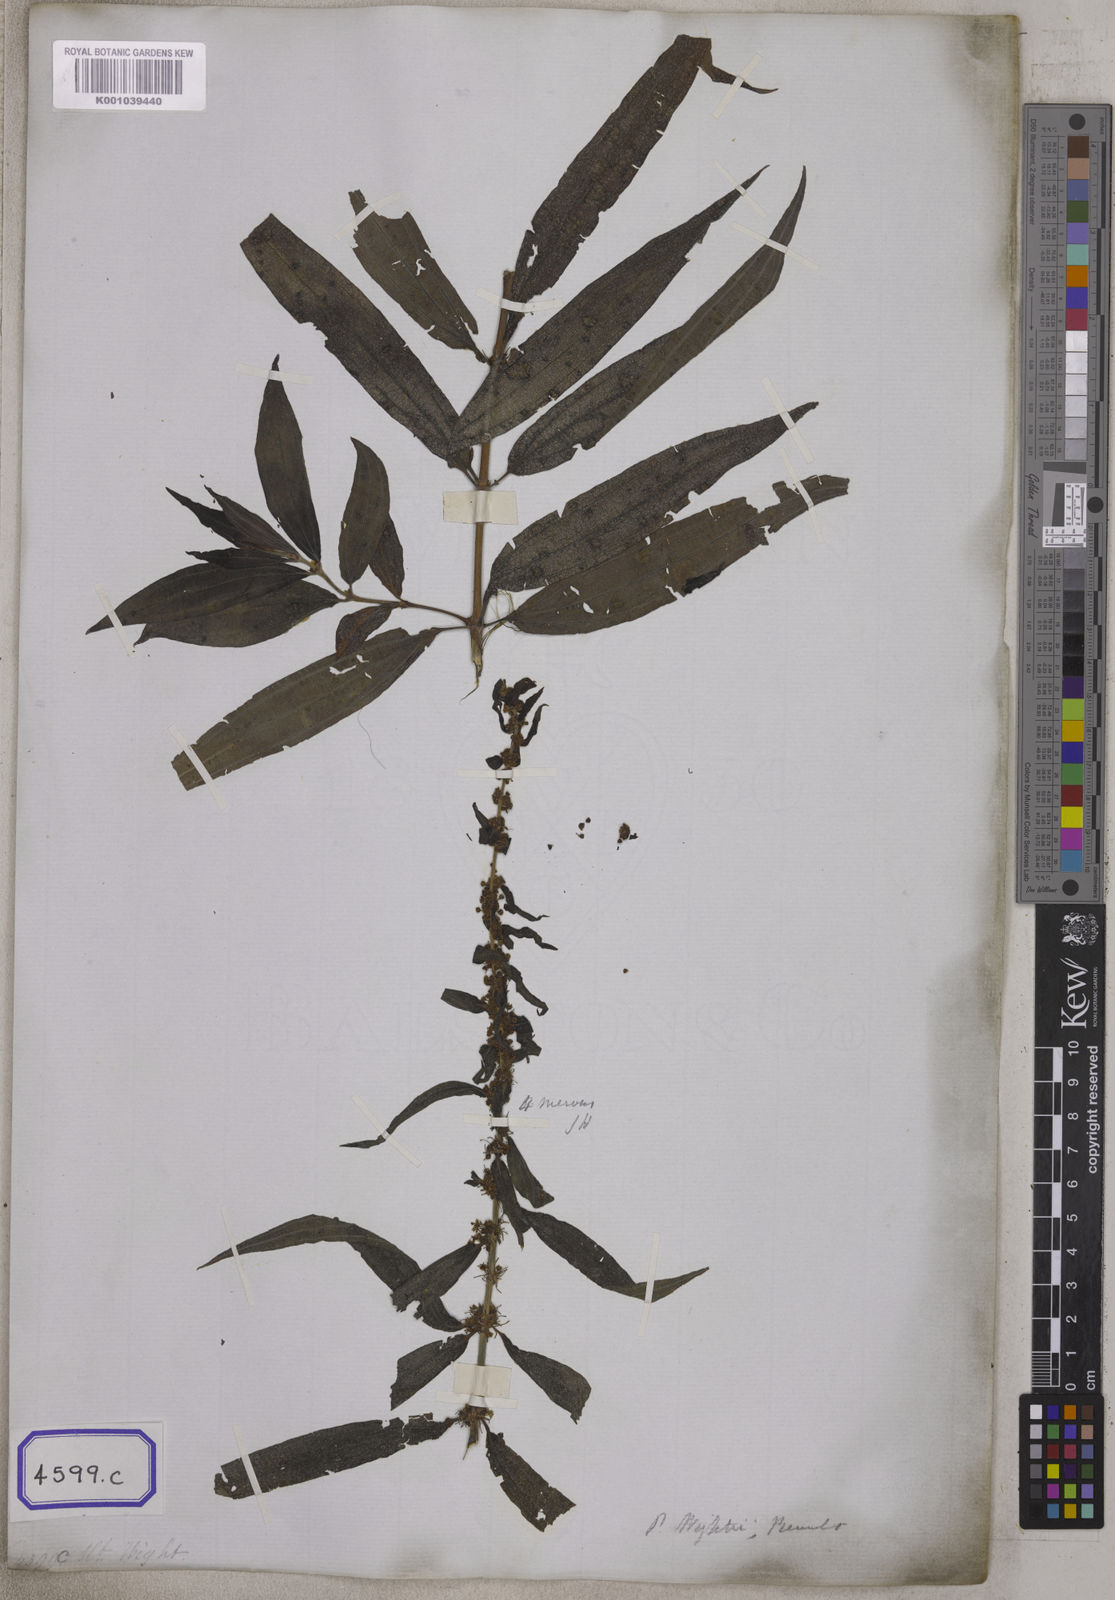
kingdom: Plantae
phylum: Tracheophyta
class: Magnoliopsida
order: Rosales
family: Urticaceae
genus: Gonostegia
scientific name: Gonostegia pentandra
